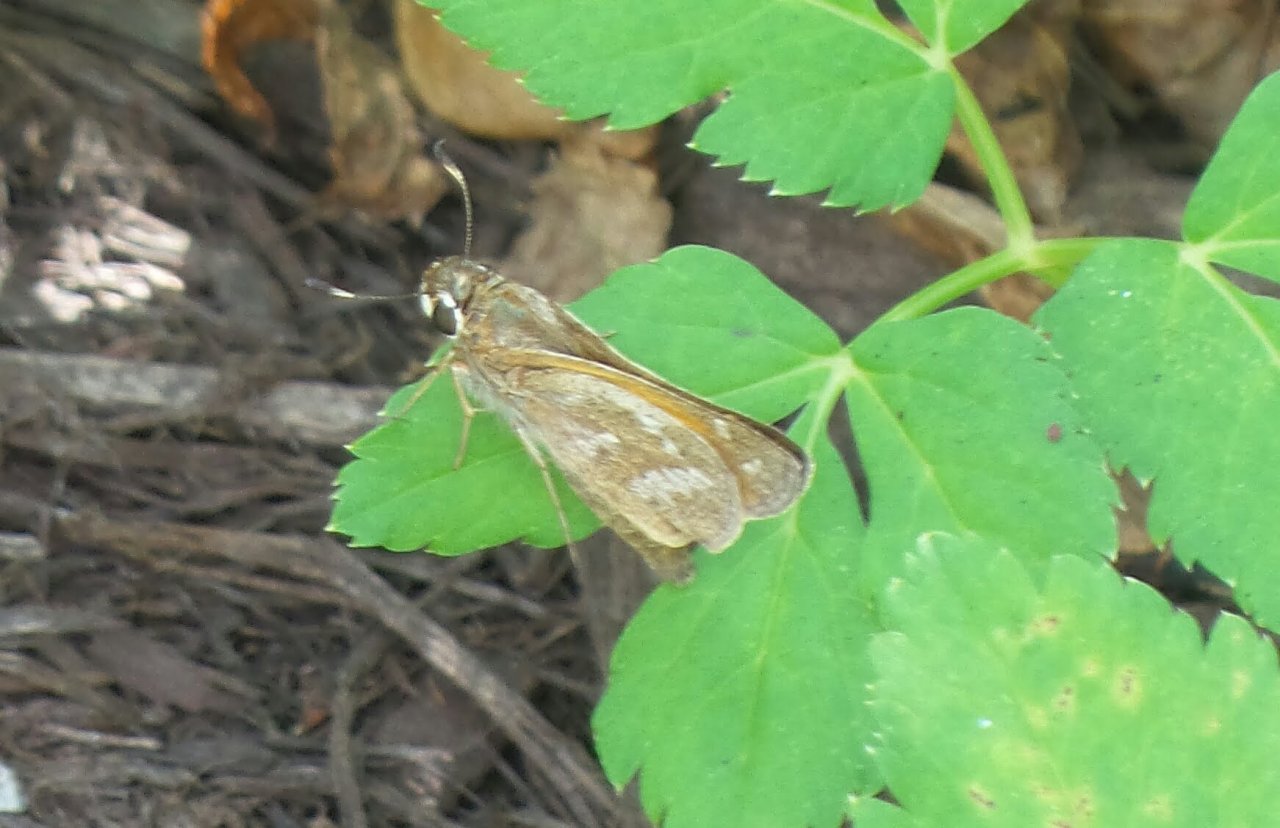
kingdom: Animalia
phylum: Arthropoda
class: Insecta
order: Lepidoptera
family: Hesperiidae
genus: Atalopedes
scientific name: Atalopedes campestris
